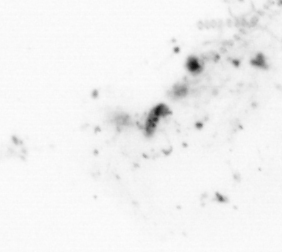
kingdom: Chromista
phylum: Ochrophyta
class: Bacillariophyceae
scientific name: Bacillariophyceae
